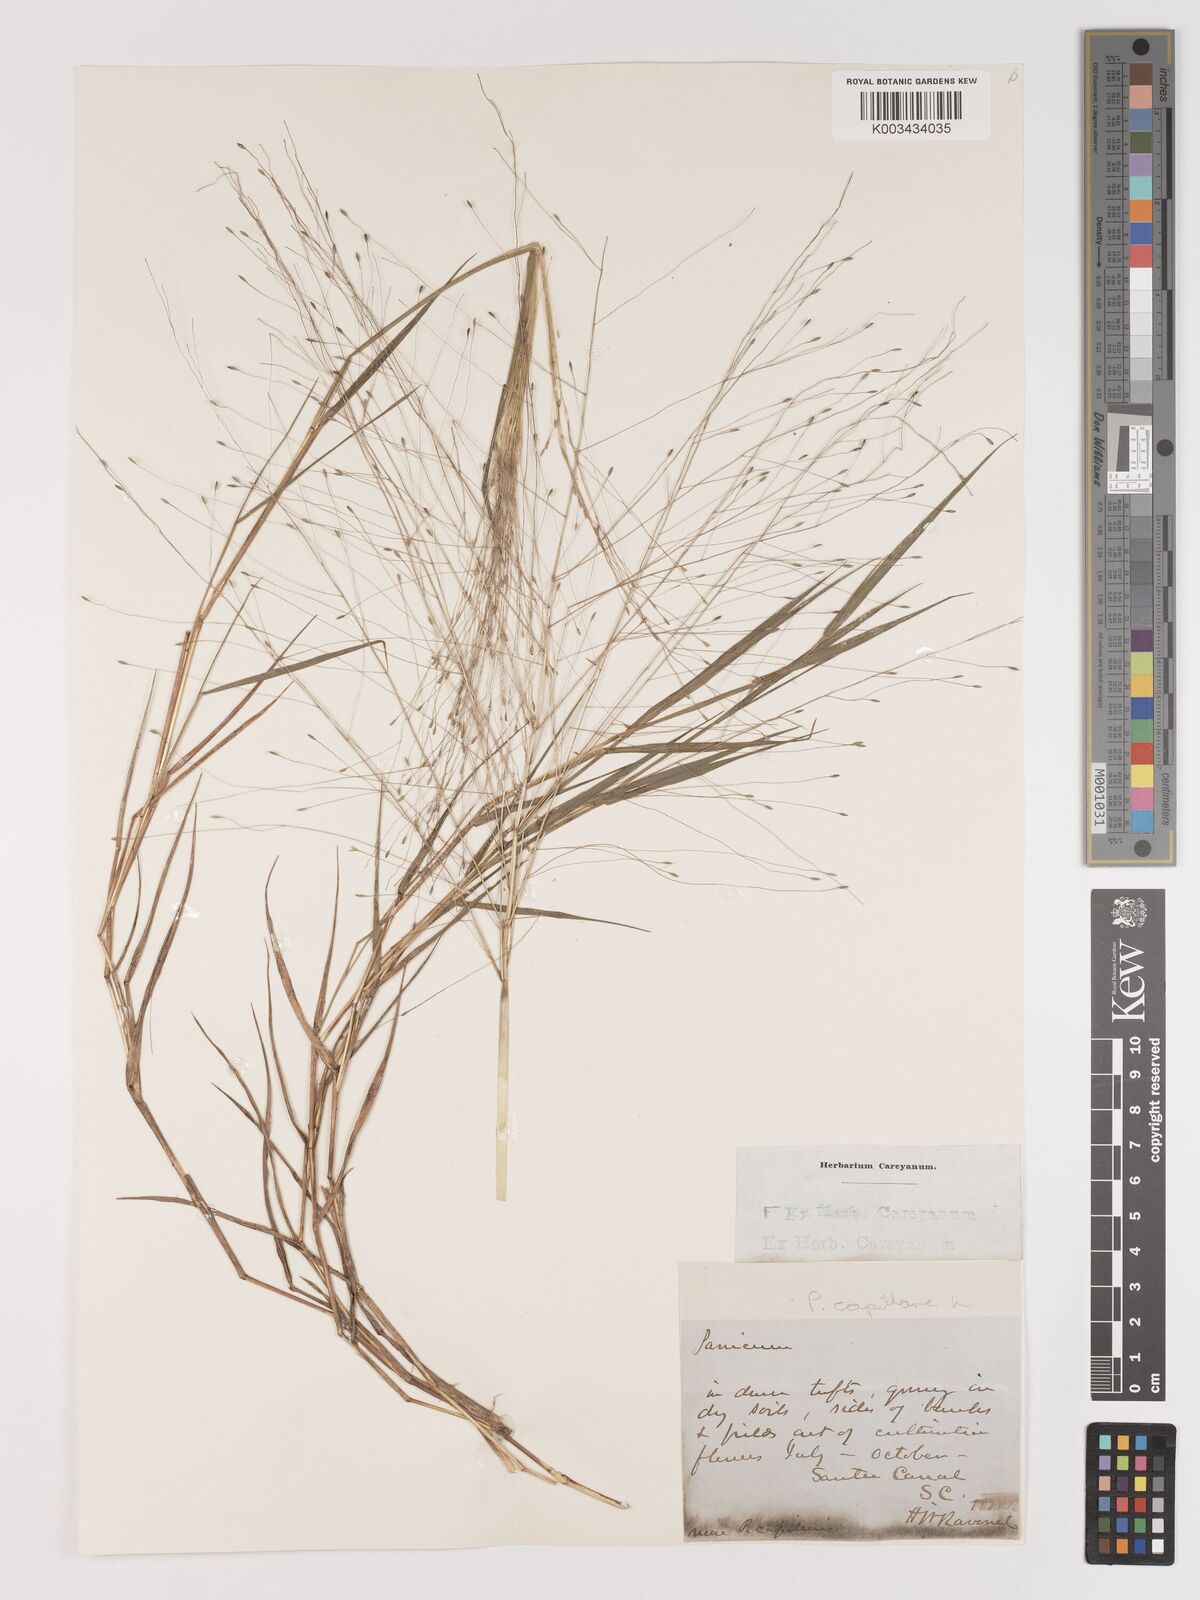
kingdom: Plantae
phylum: Tracheophyta
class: Liliopsida
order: Poales
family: Poaceae
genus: Digitaria
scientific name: Digitaria cognata
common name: Fall witchgrass
